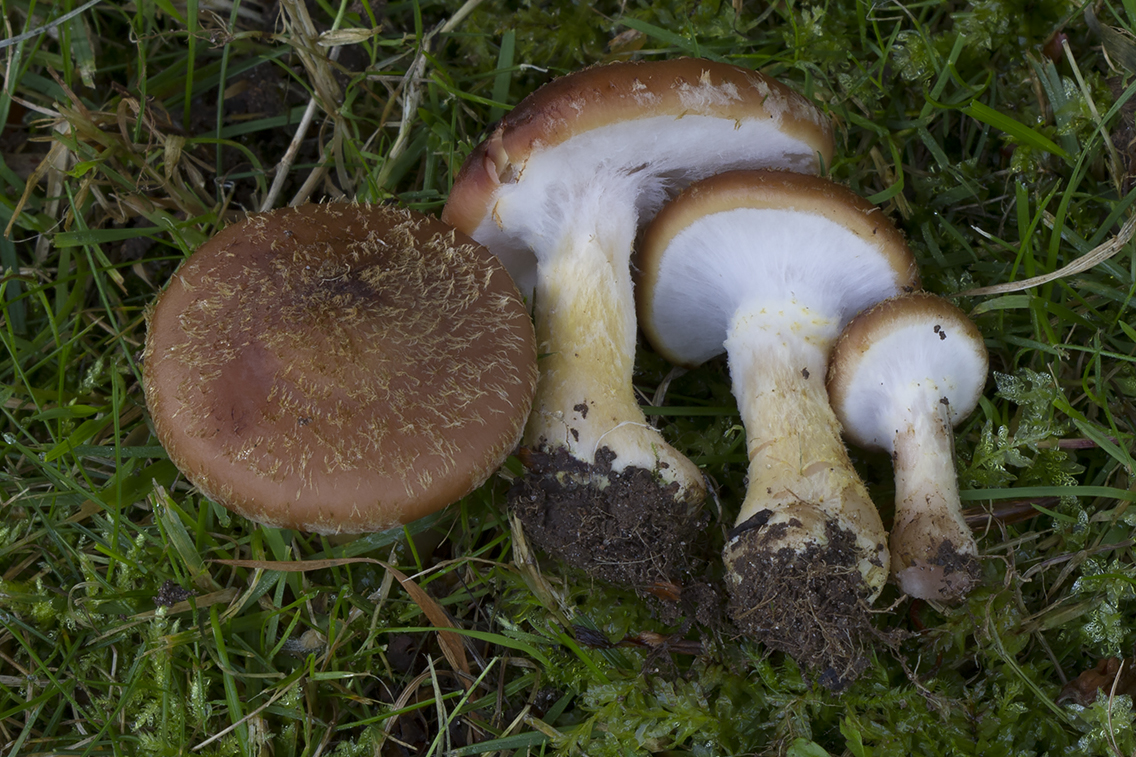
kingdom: Fungi
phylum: Basidiomycota
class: Agaricomycetes
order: Agaricales
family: Physalacriaceae
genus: Armillaria
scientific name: Armillaria lutea
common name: køllestokket honningsvamp
